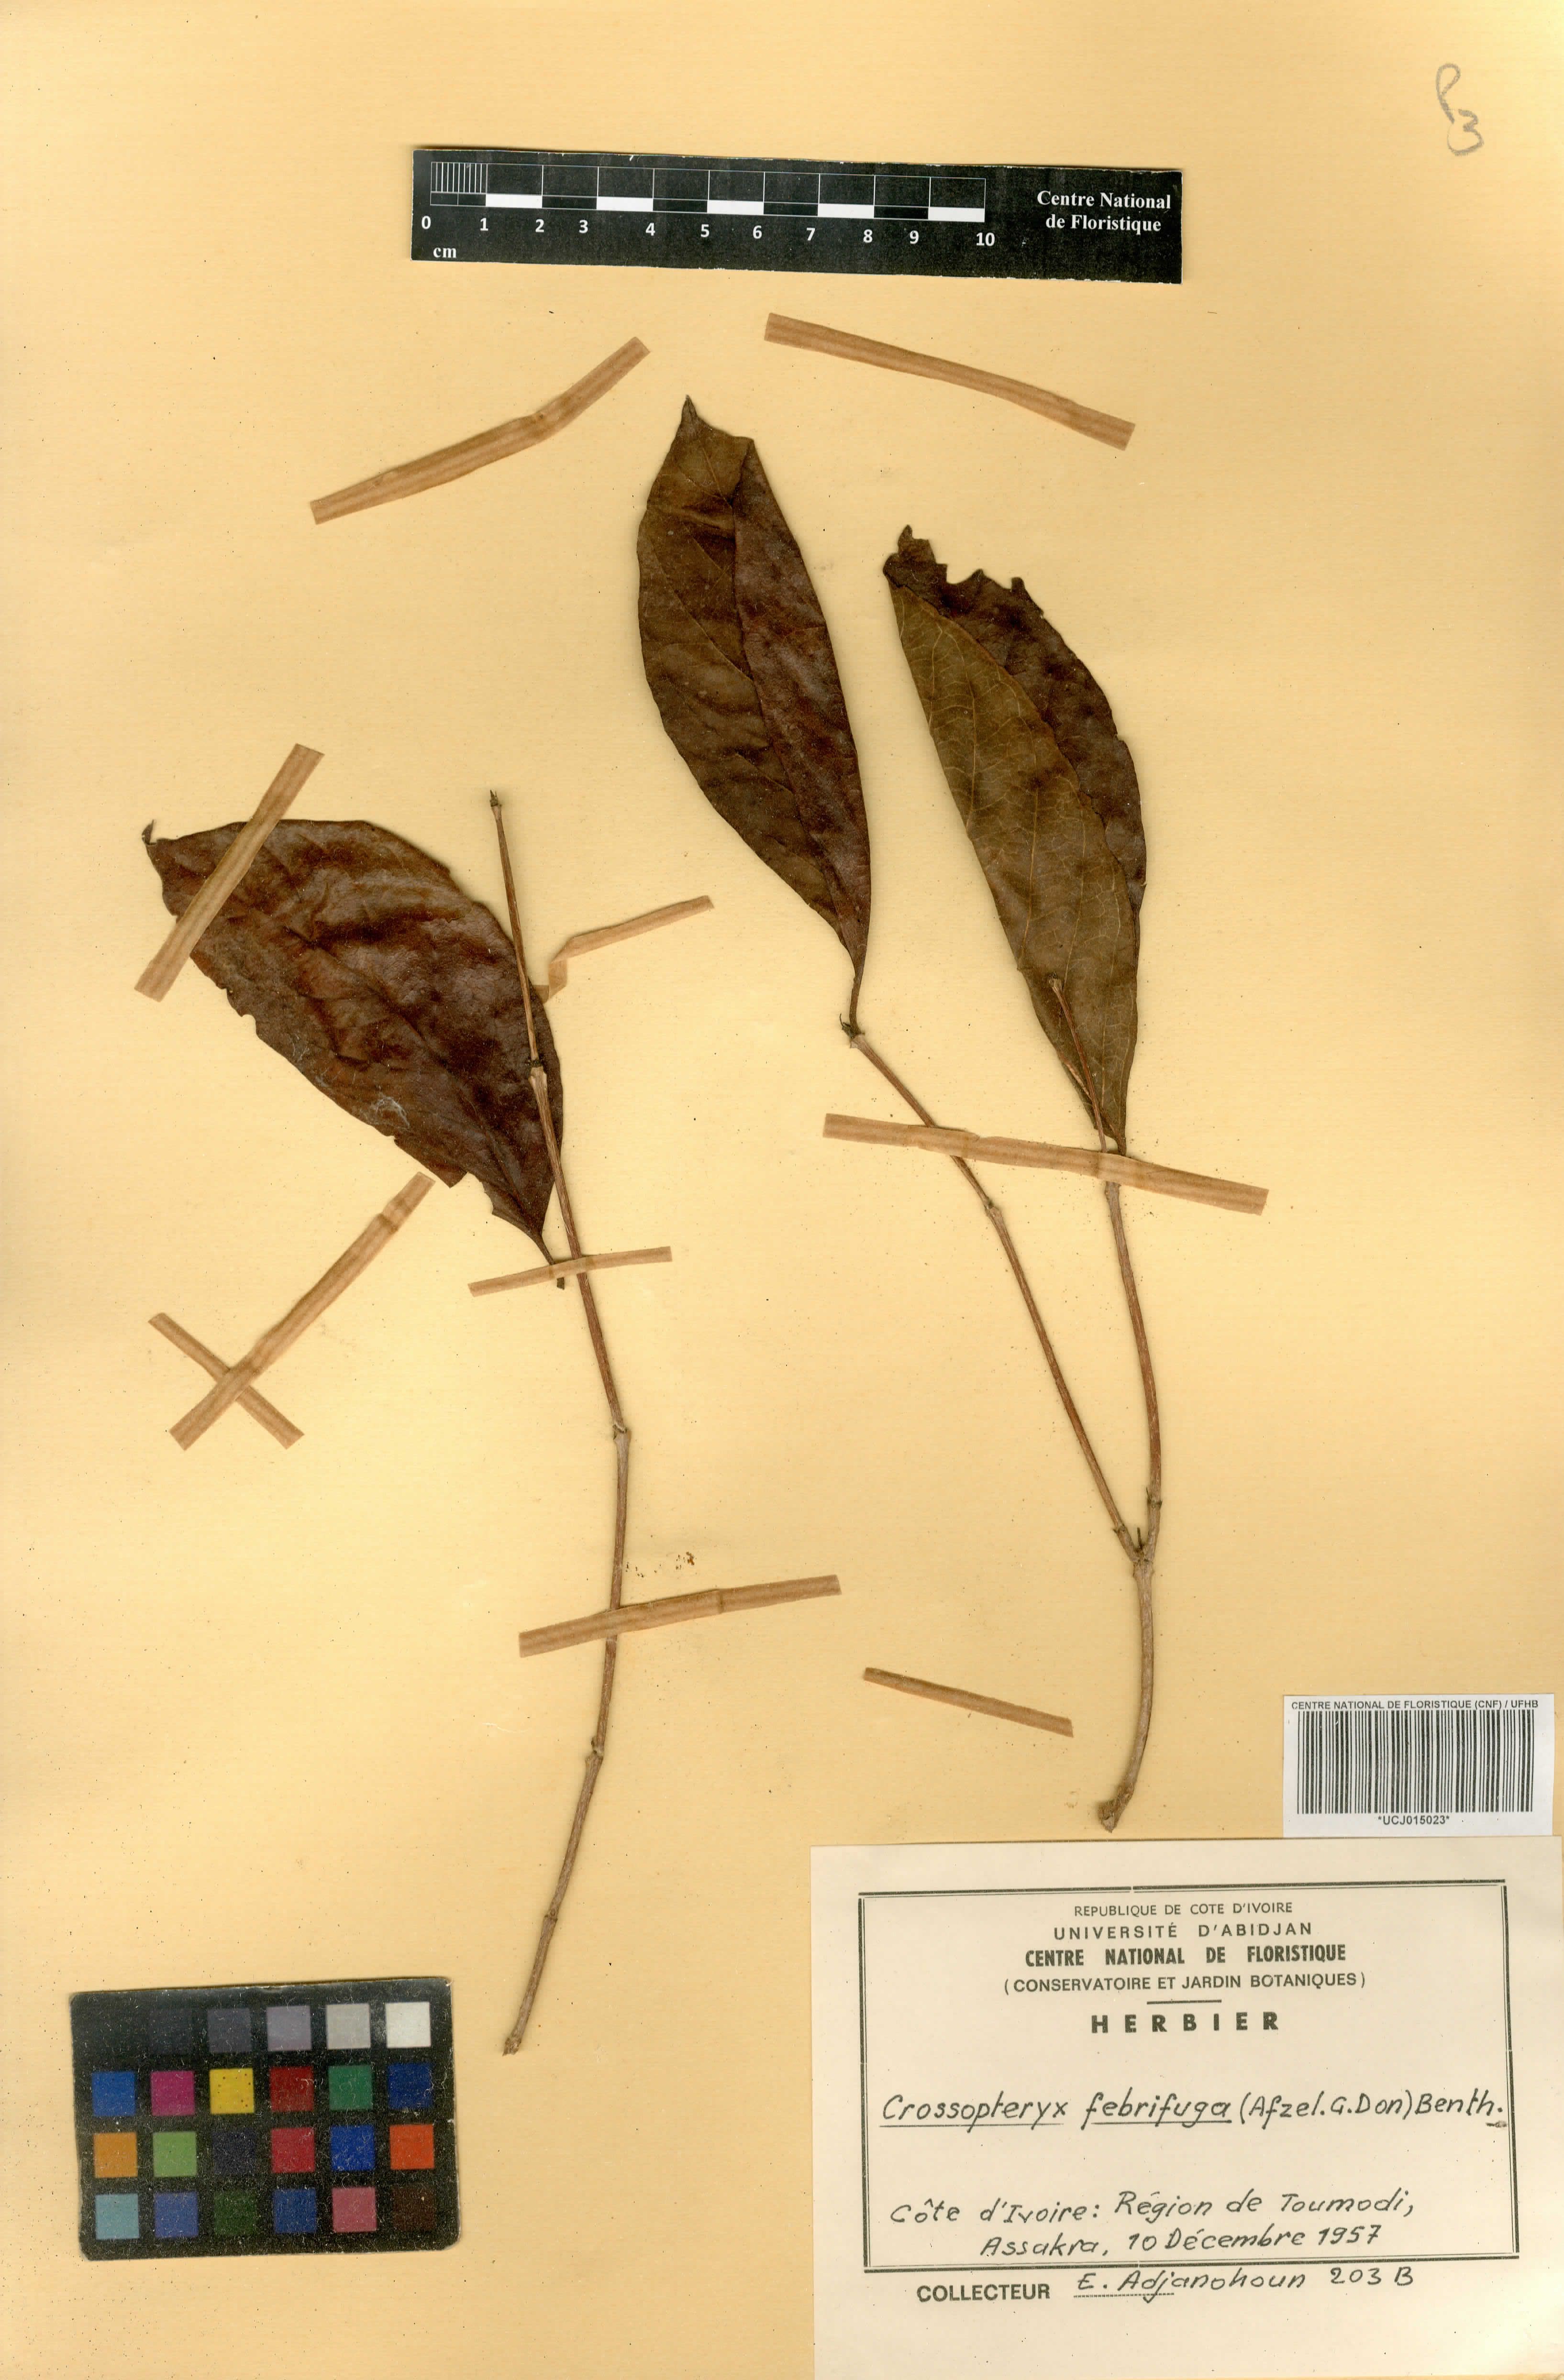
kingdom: Plantae
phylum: Tracheophyta
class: Magnoliopsida
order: Gentianales
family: Rubiaceae
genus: Crossopteryx
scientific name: Crossopteryx febrifuga
